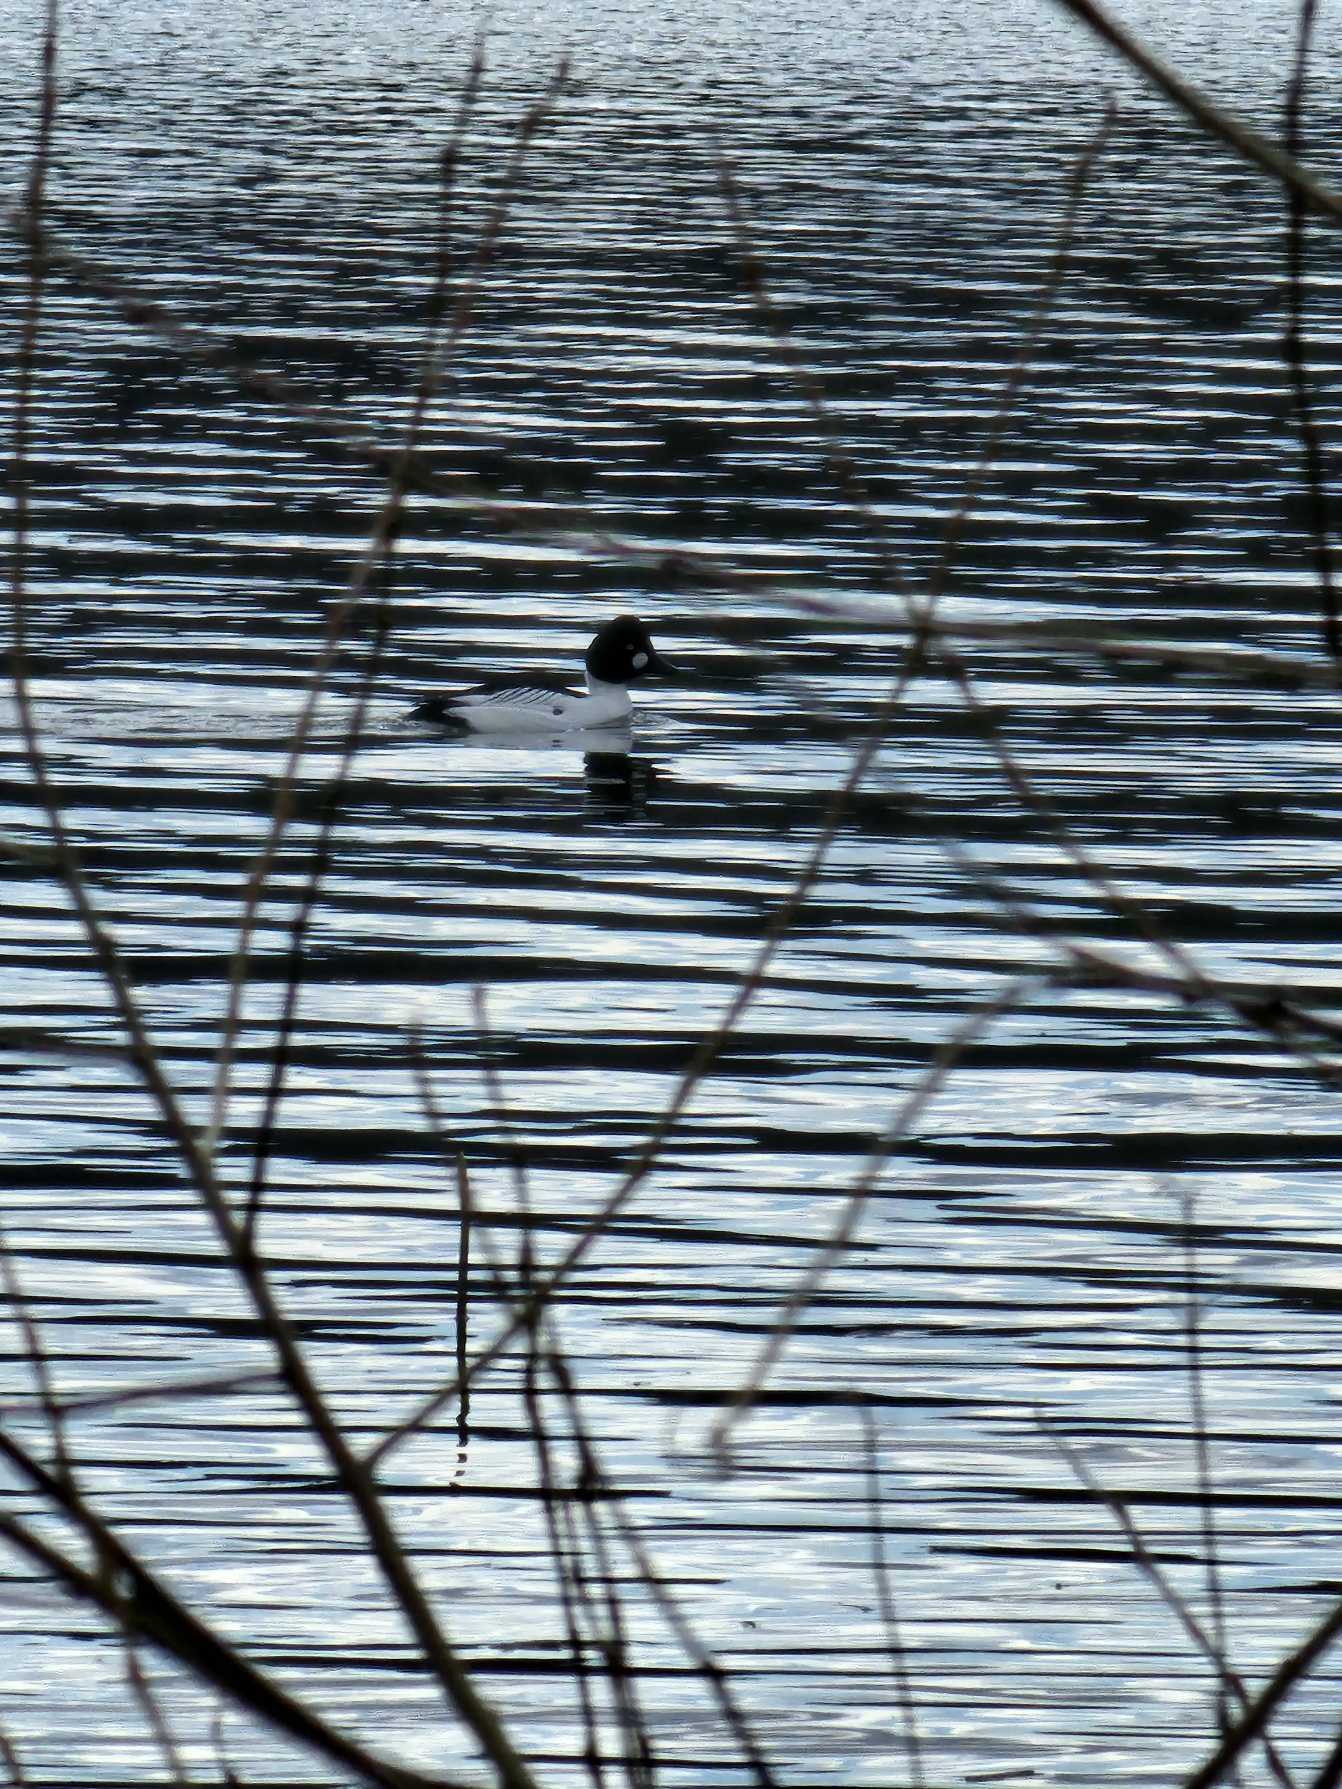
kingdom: Animalia
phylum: Chordata
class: Aves
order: Anseriformes
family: Anatidae
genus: Bucephala
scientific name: Bucephala clangula
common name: Hvinand
